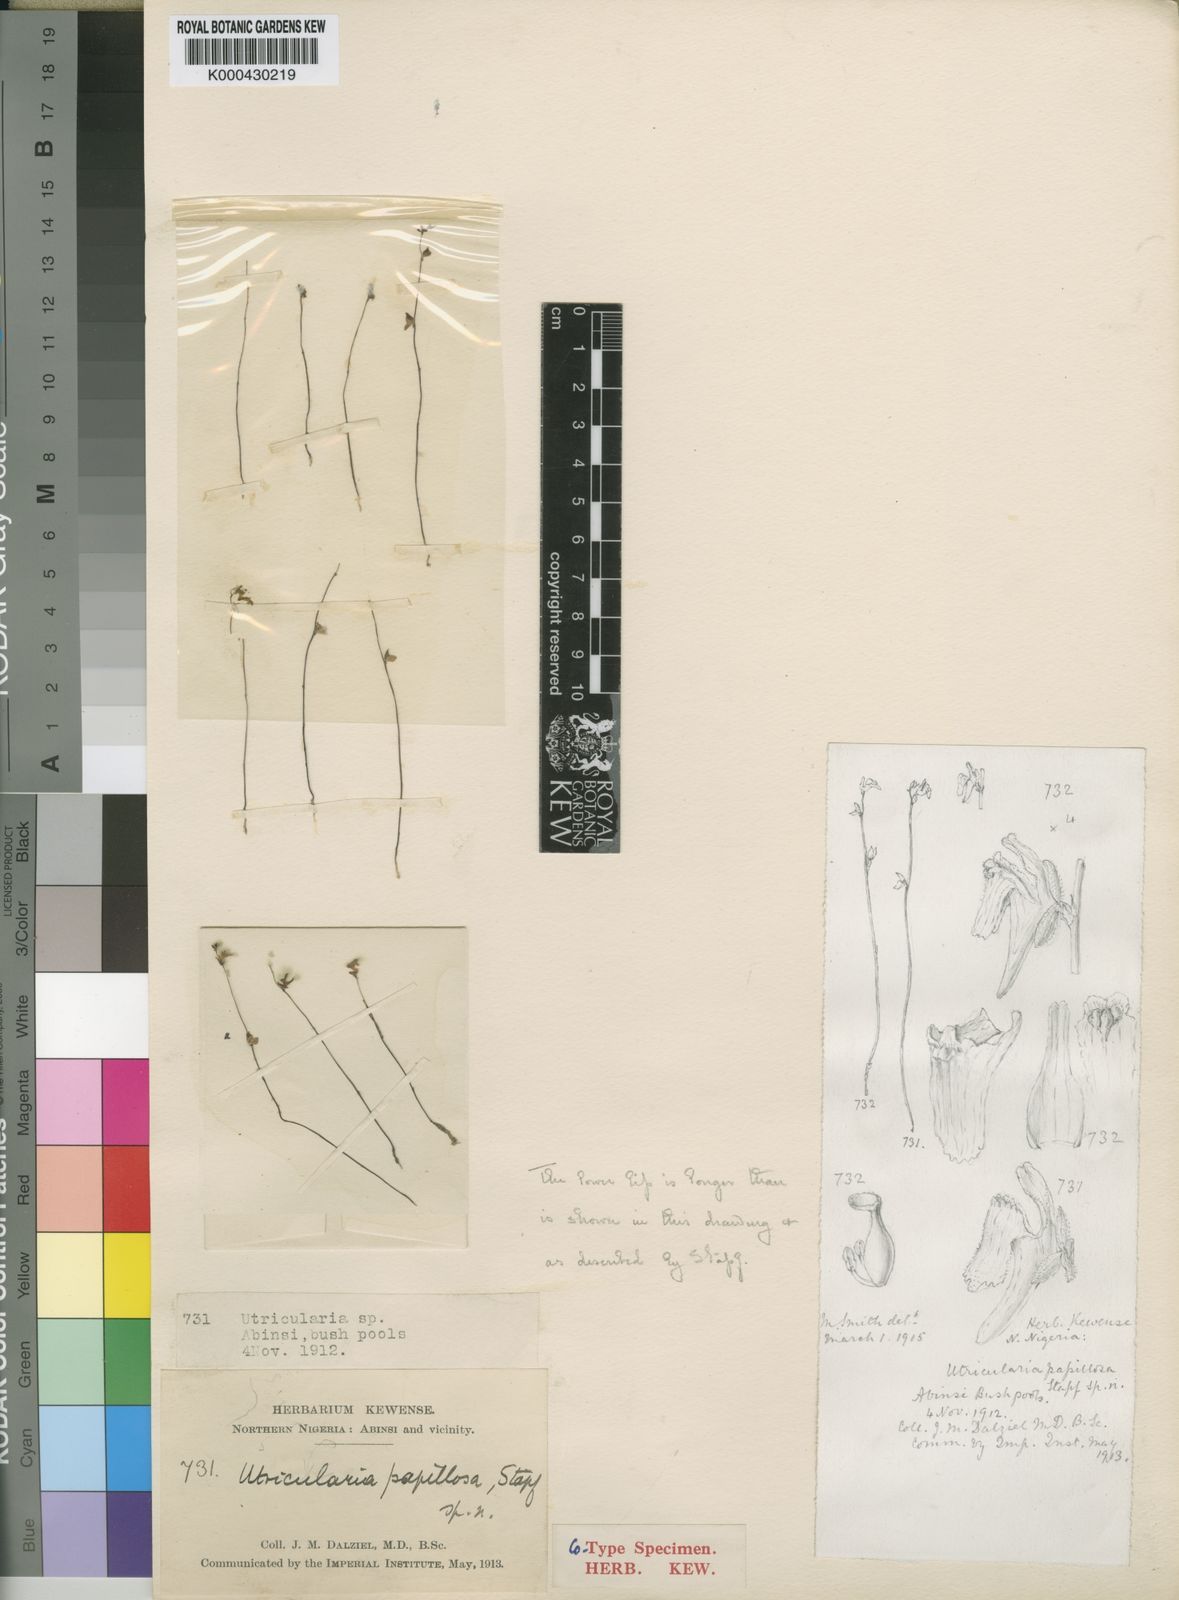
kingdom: Plantae
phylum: Tracheophyta
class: Magnoliopsida
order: Lamiales
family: Lentibulariaceae
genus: Utricularia
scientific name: Utricularia pubescens
